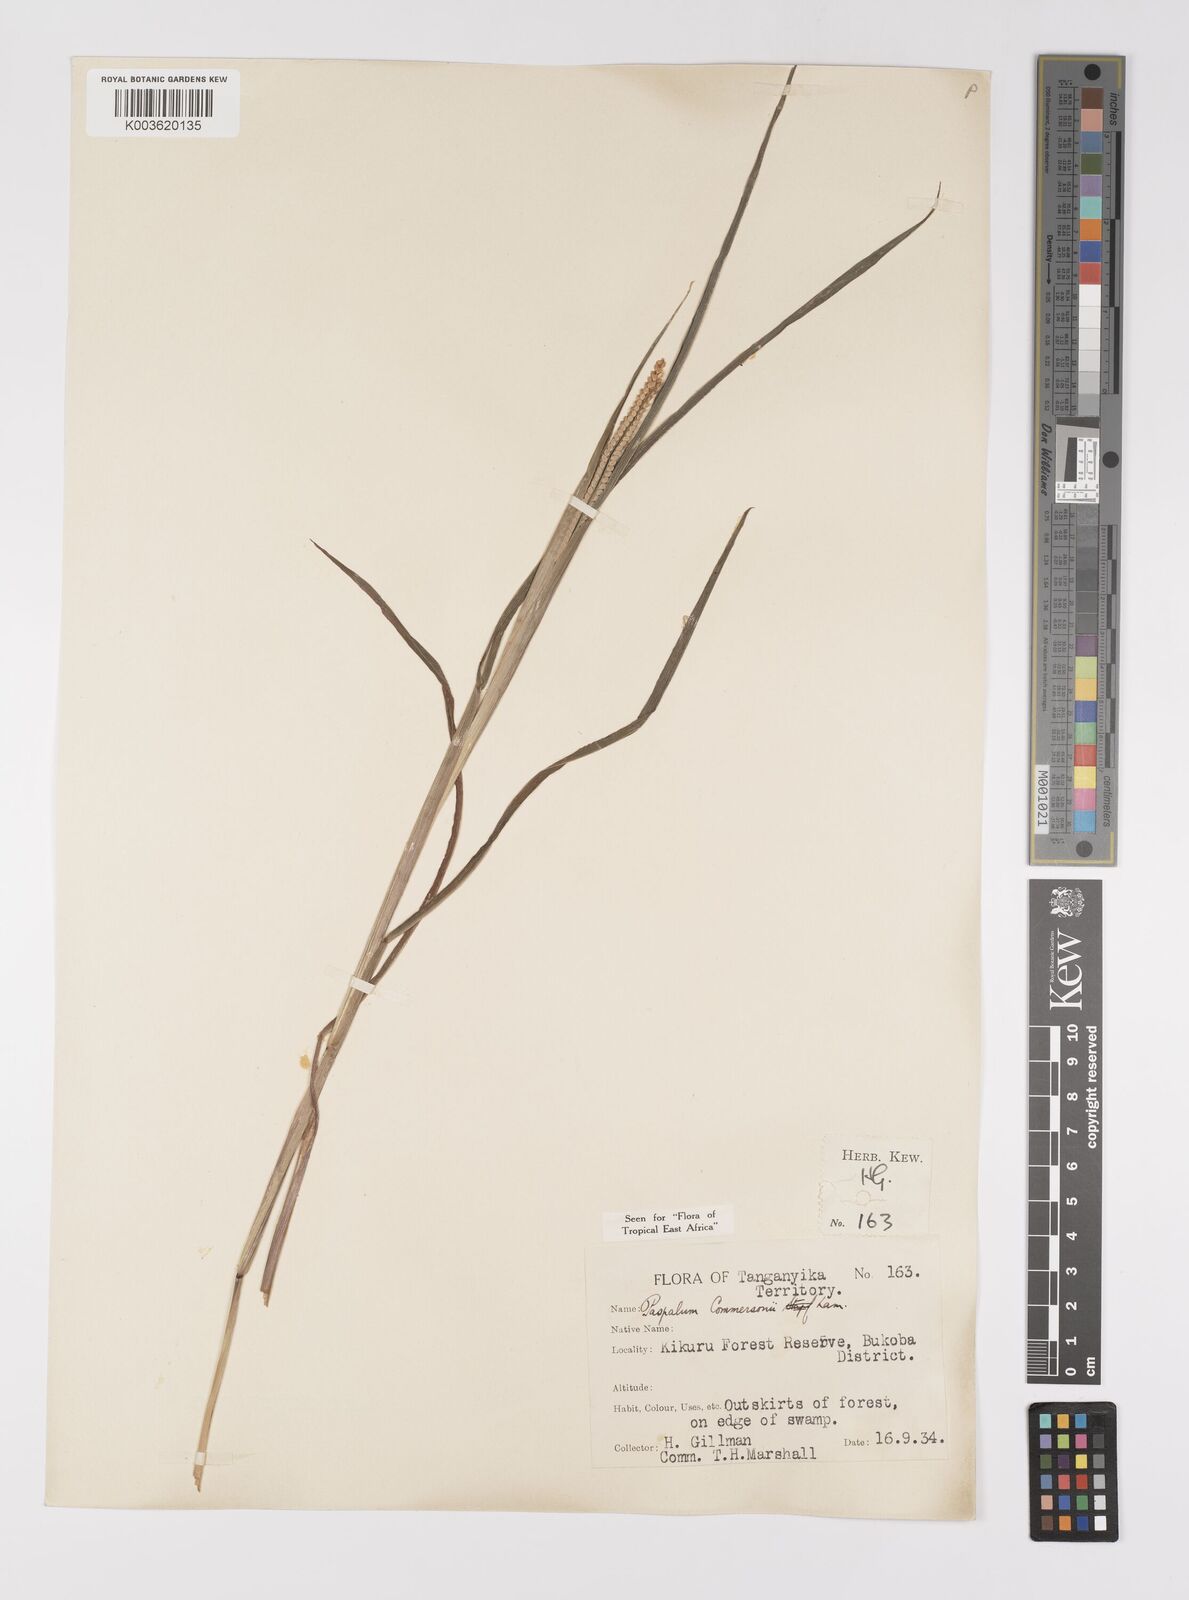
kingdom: Plantae
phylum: Tracheophyta
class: Liliopsida
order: Poales
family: Poaceae
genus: Paspalum
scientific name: Paspalum scrobiculatum
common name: Kodo millet
